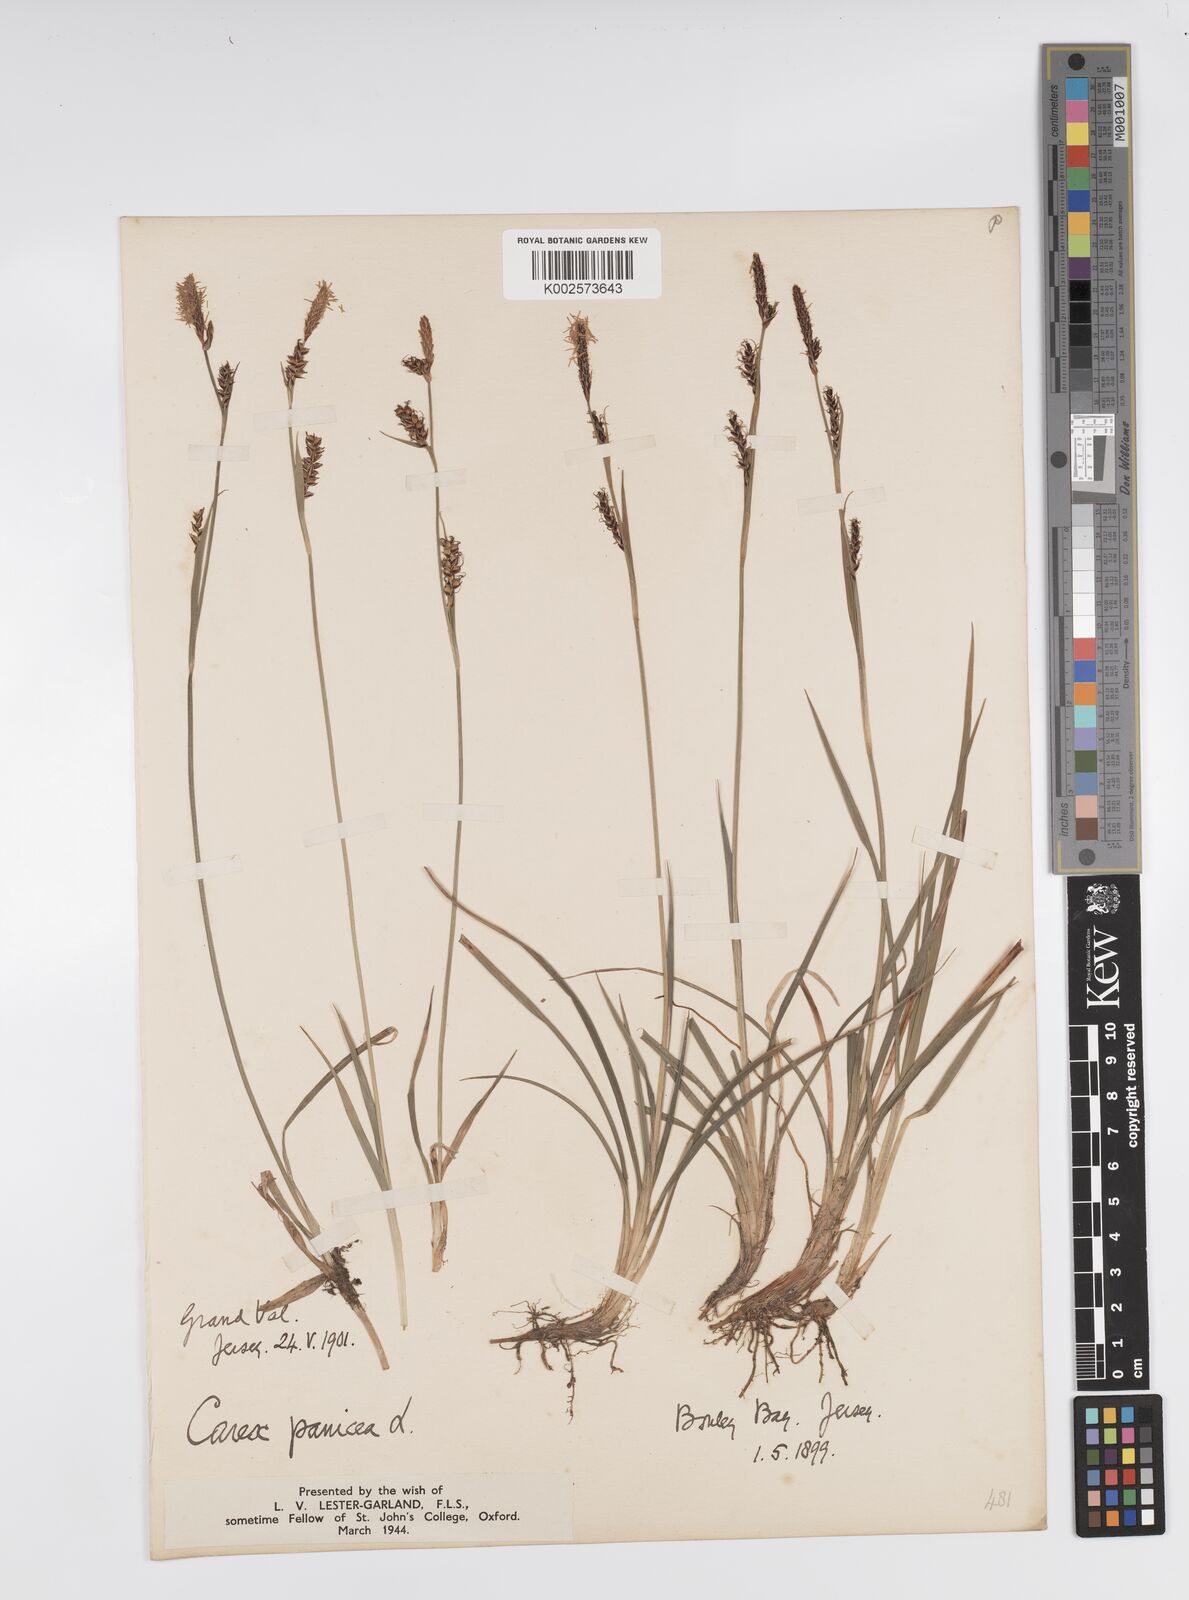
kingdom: Plantae
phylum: Tracheophyta
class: Liliopsida
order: Poales
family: Cyperaceae
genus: Carex
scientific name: Carex panicea
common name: Carnation sedge
